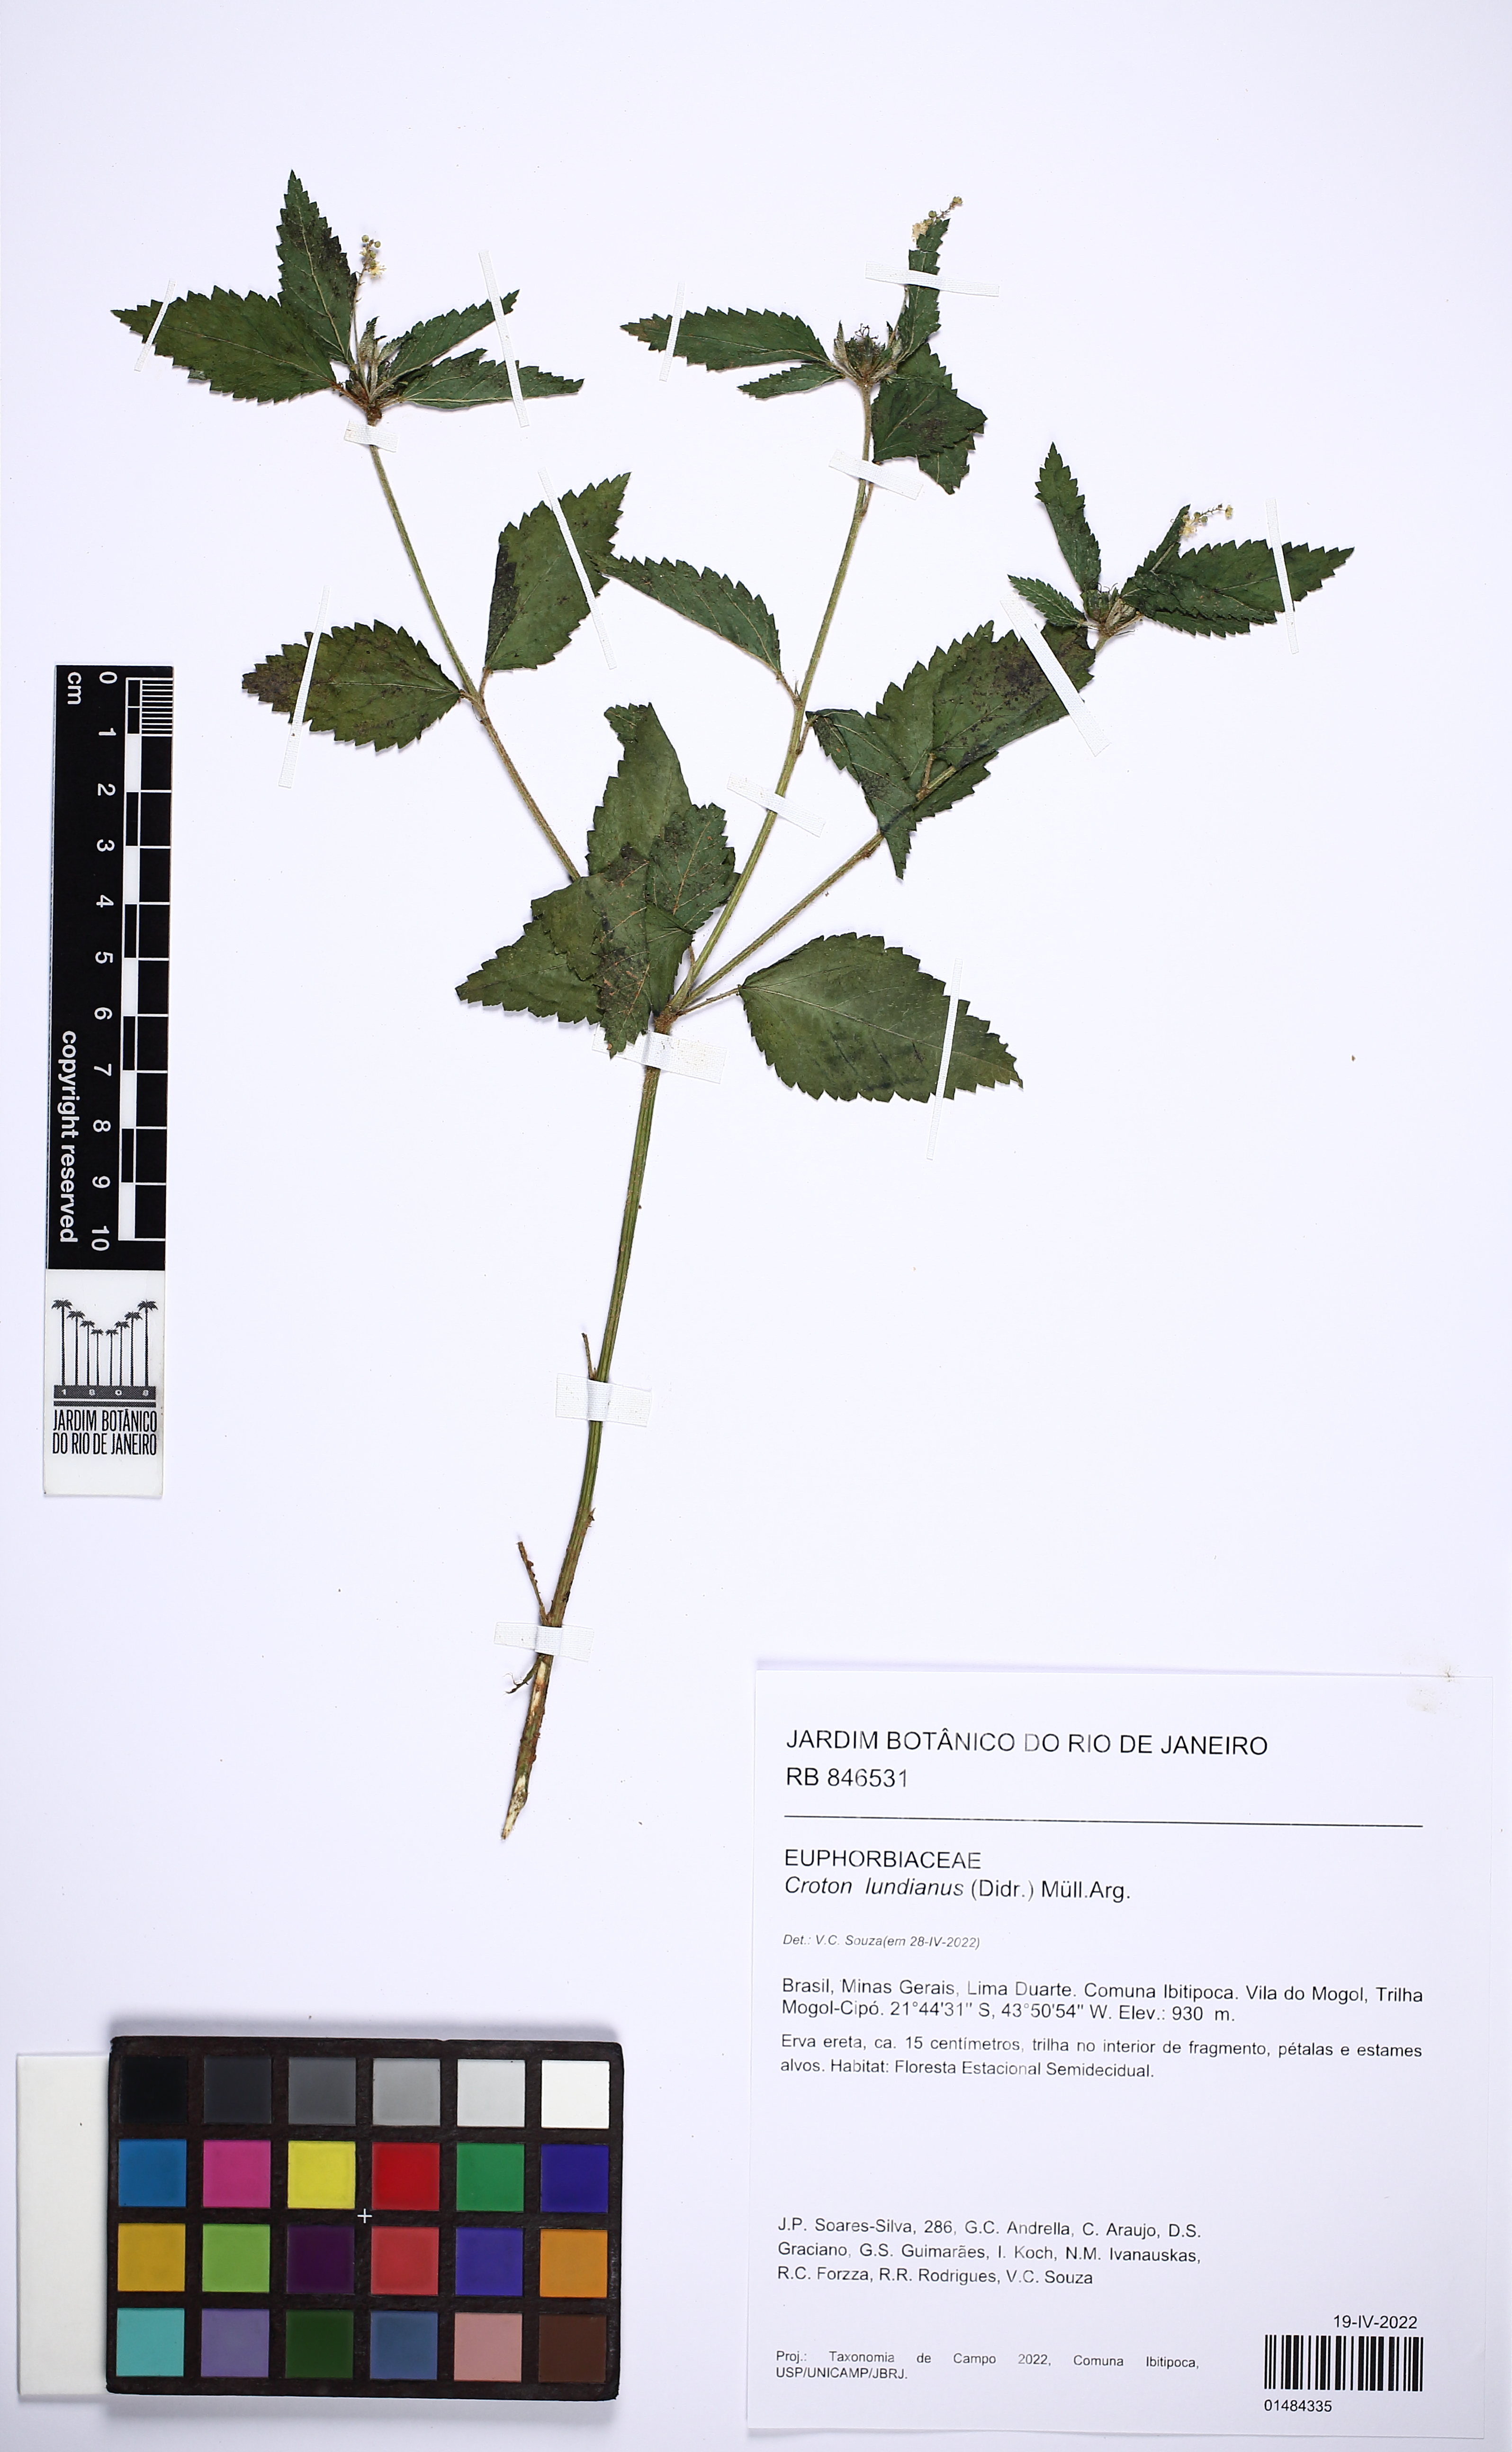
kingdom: Plantae
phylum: Tracheophyta
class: Magnoliopsida
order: Malpighiales
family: Euphorbiaceae
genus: Croton
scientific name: Croton lundianus
